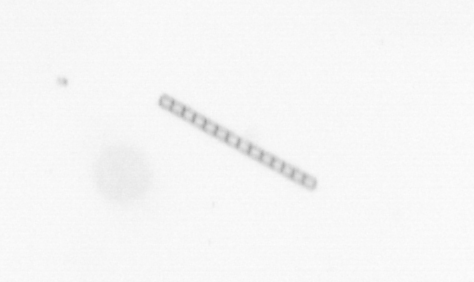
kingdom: Chromista
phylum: Ochrophyta
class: Bacillariophyceae
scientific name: Bacillariophyceae
